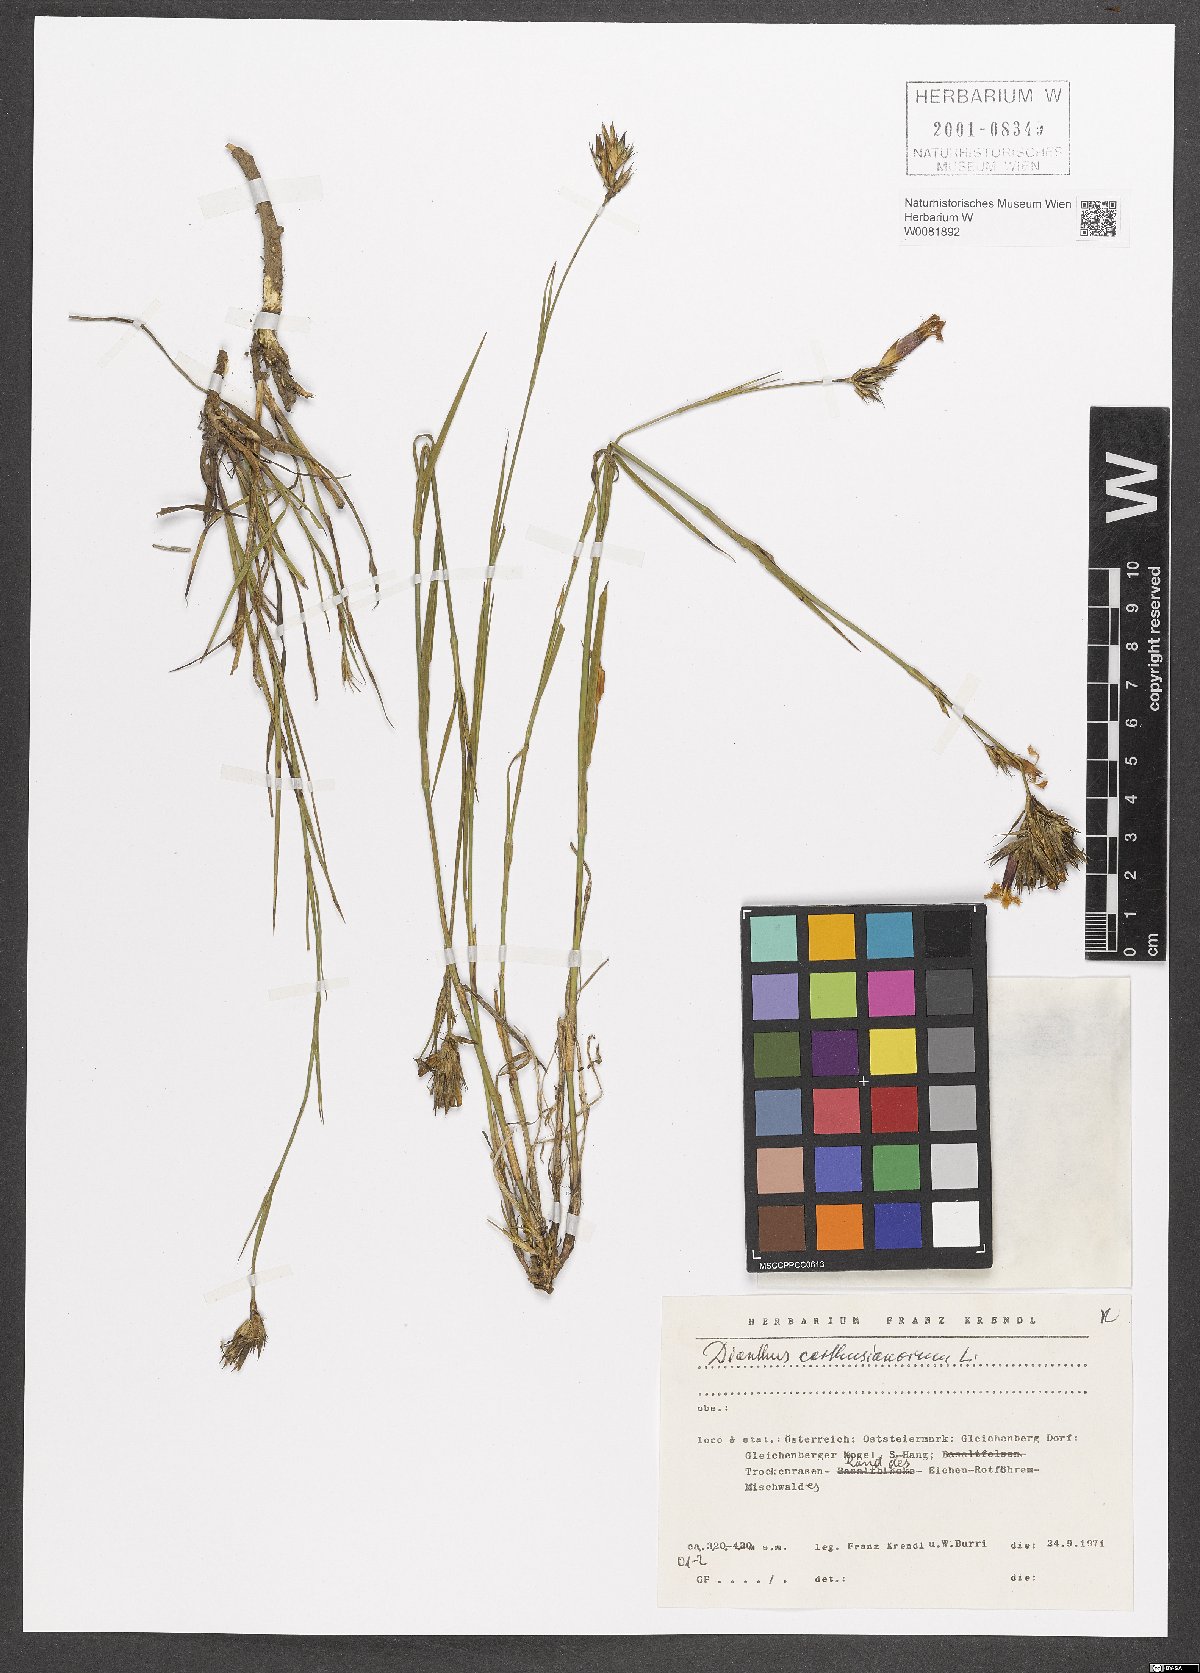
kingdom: Plantae
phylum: Tracheophyta
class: Magnoliopsida
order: Caryophyllales
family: Caryophyllaceae
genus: Dianthus
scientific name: Dianthus carthusianorum
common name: Carthusian pink
